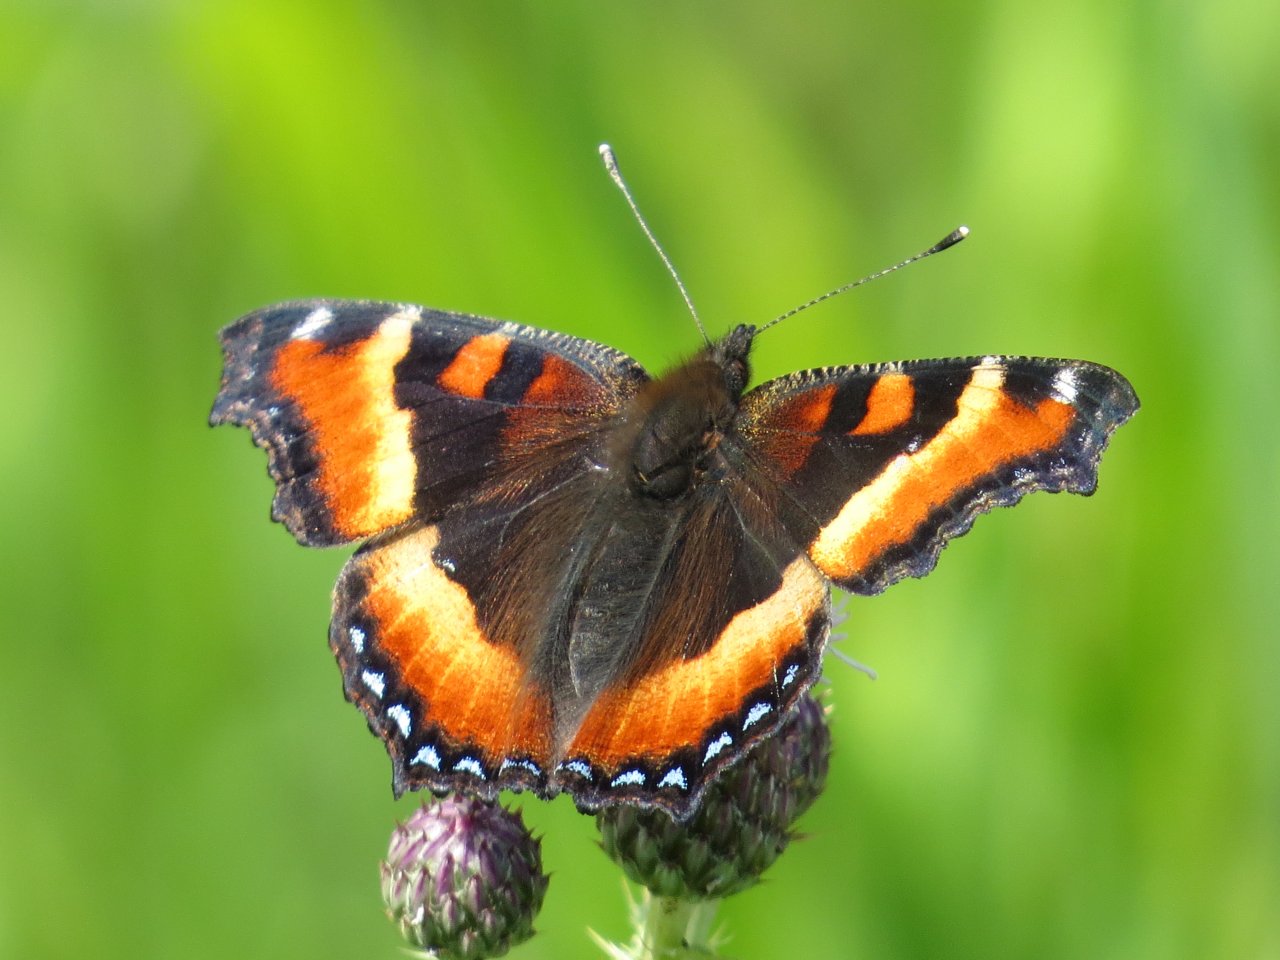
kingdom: Animalia
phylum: Arthropoda
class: Insecta
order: Lepidoptera
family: Nymphalidae
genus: Aglais
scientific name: Aglais milberti
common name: Milbert's Tortoiseshell
